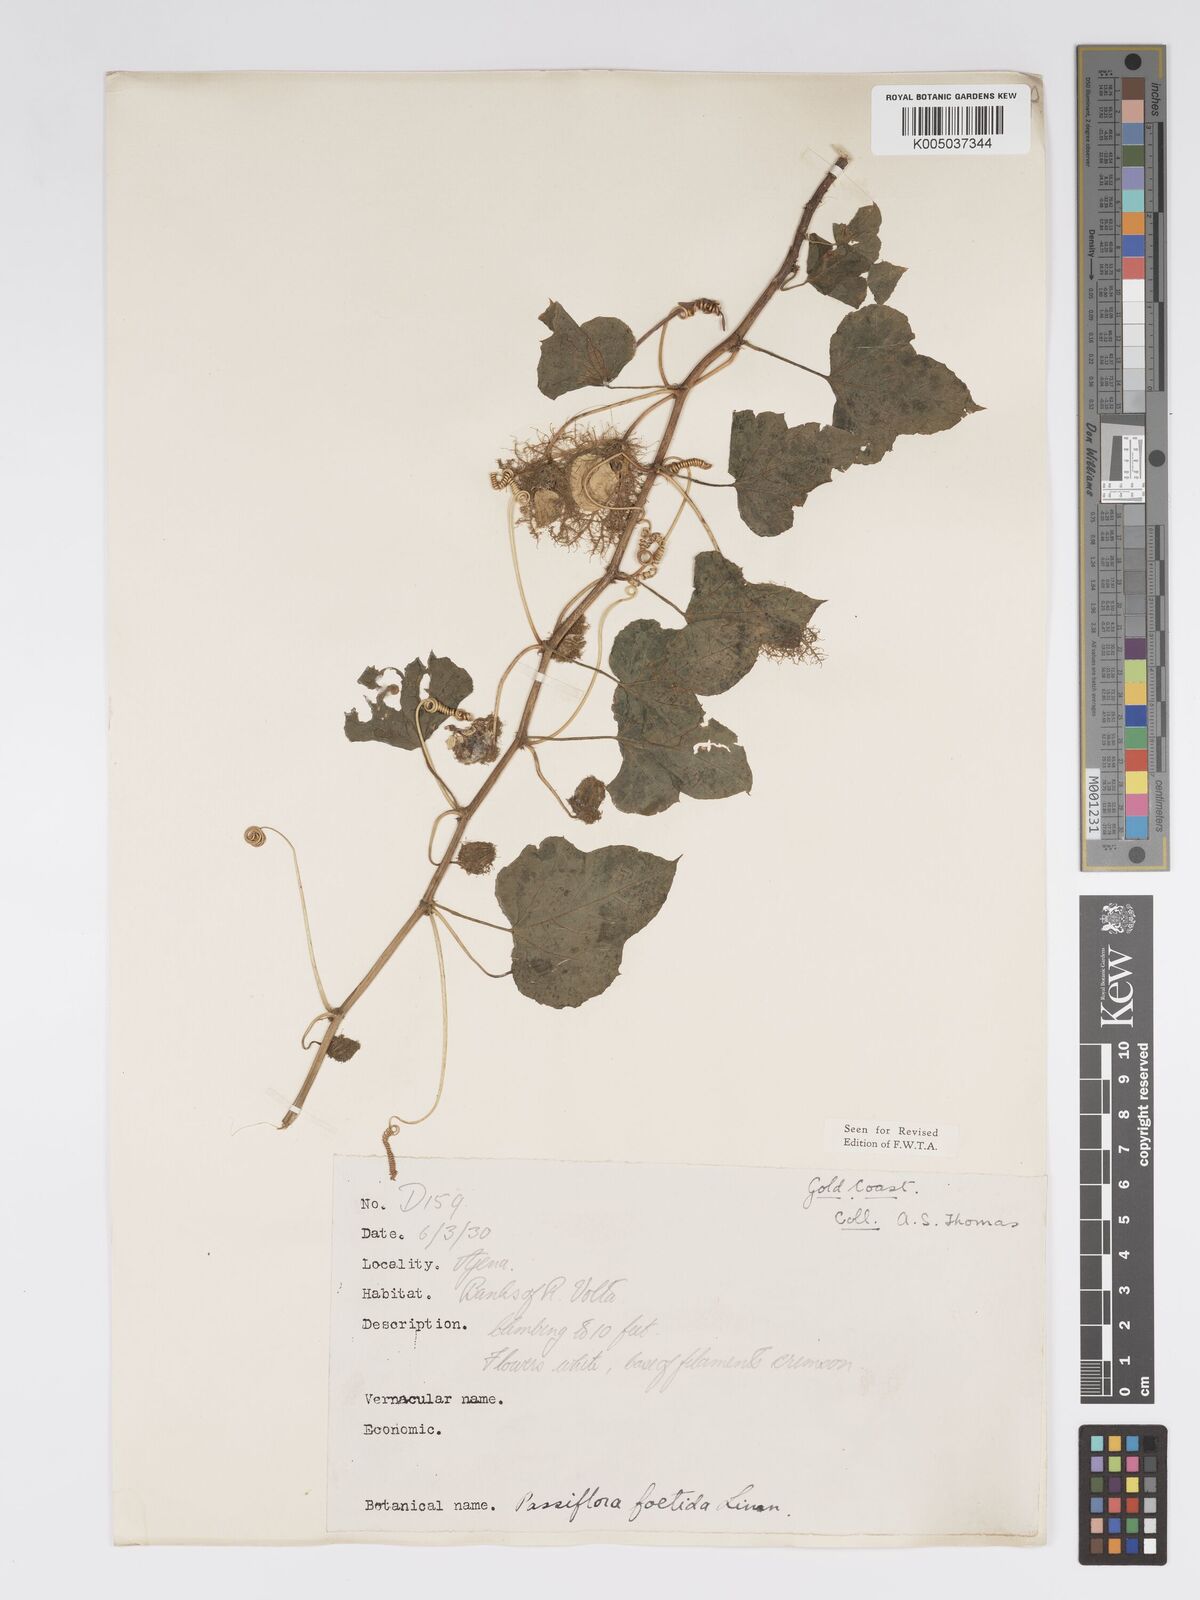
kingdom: Plantae
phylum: Tracheophyta
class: Magnoliopsida
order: Malpighiales
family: Passifloraceae
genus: Passiflora
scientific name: Passiflora foetida
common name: Fetid passionflower
